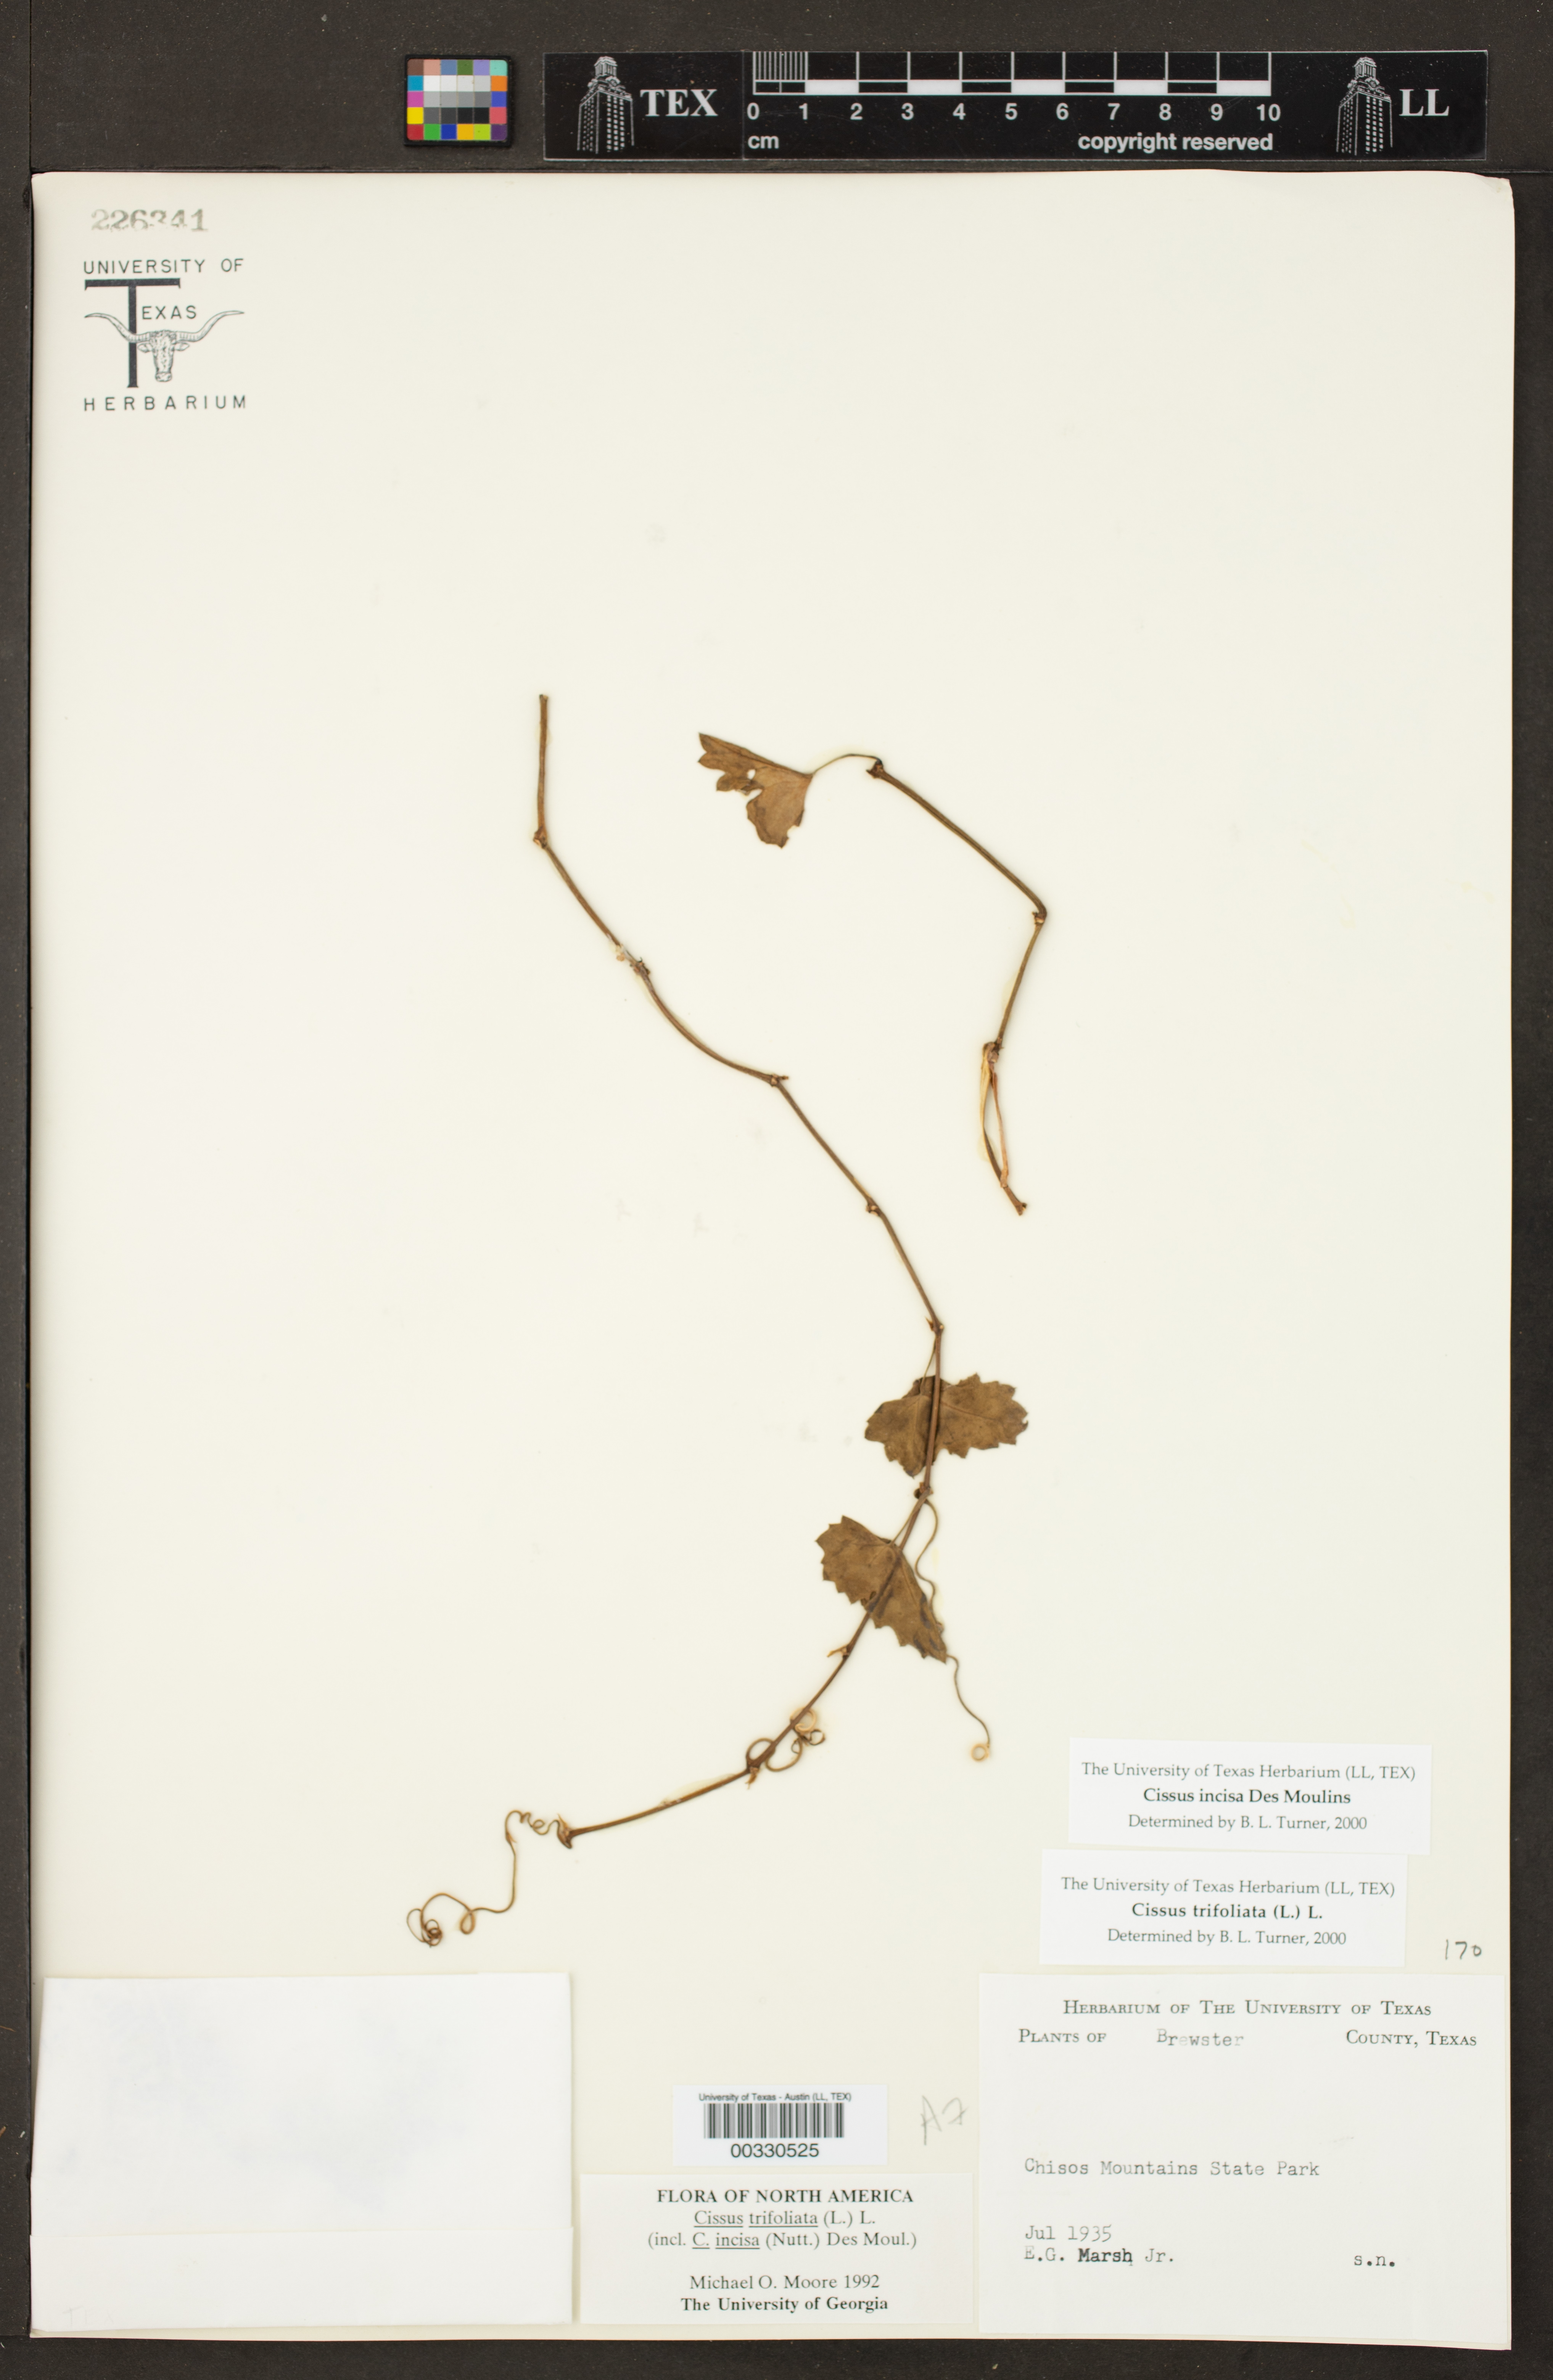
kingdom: Plantae
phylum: Tracheophyta
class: Magnoliopsida
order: Vitales
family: Vitaceae
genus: Cissus
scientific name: Cissus trifoliata
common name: Vine-sorrel
